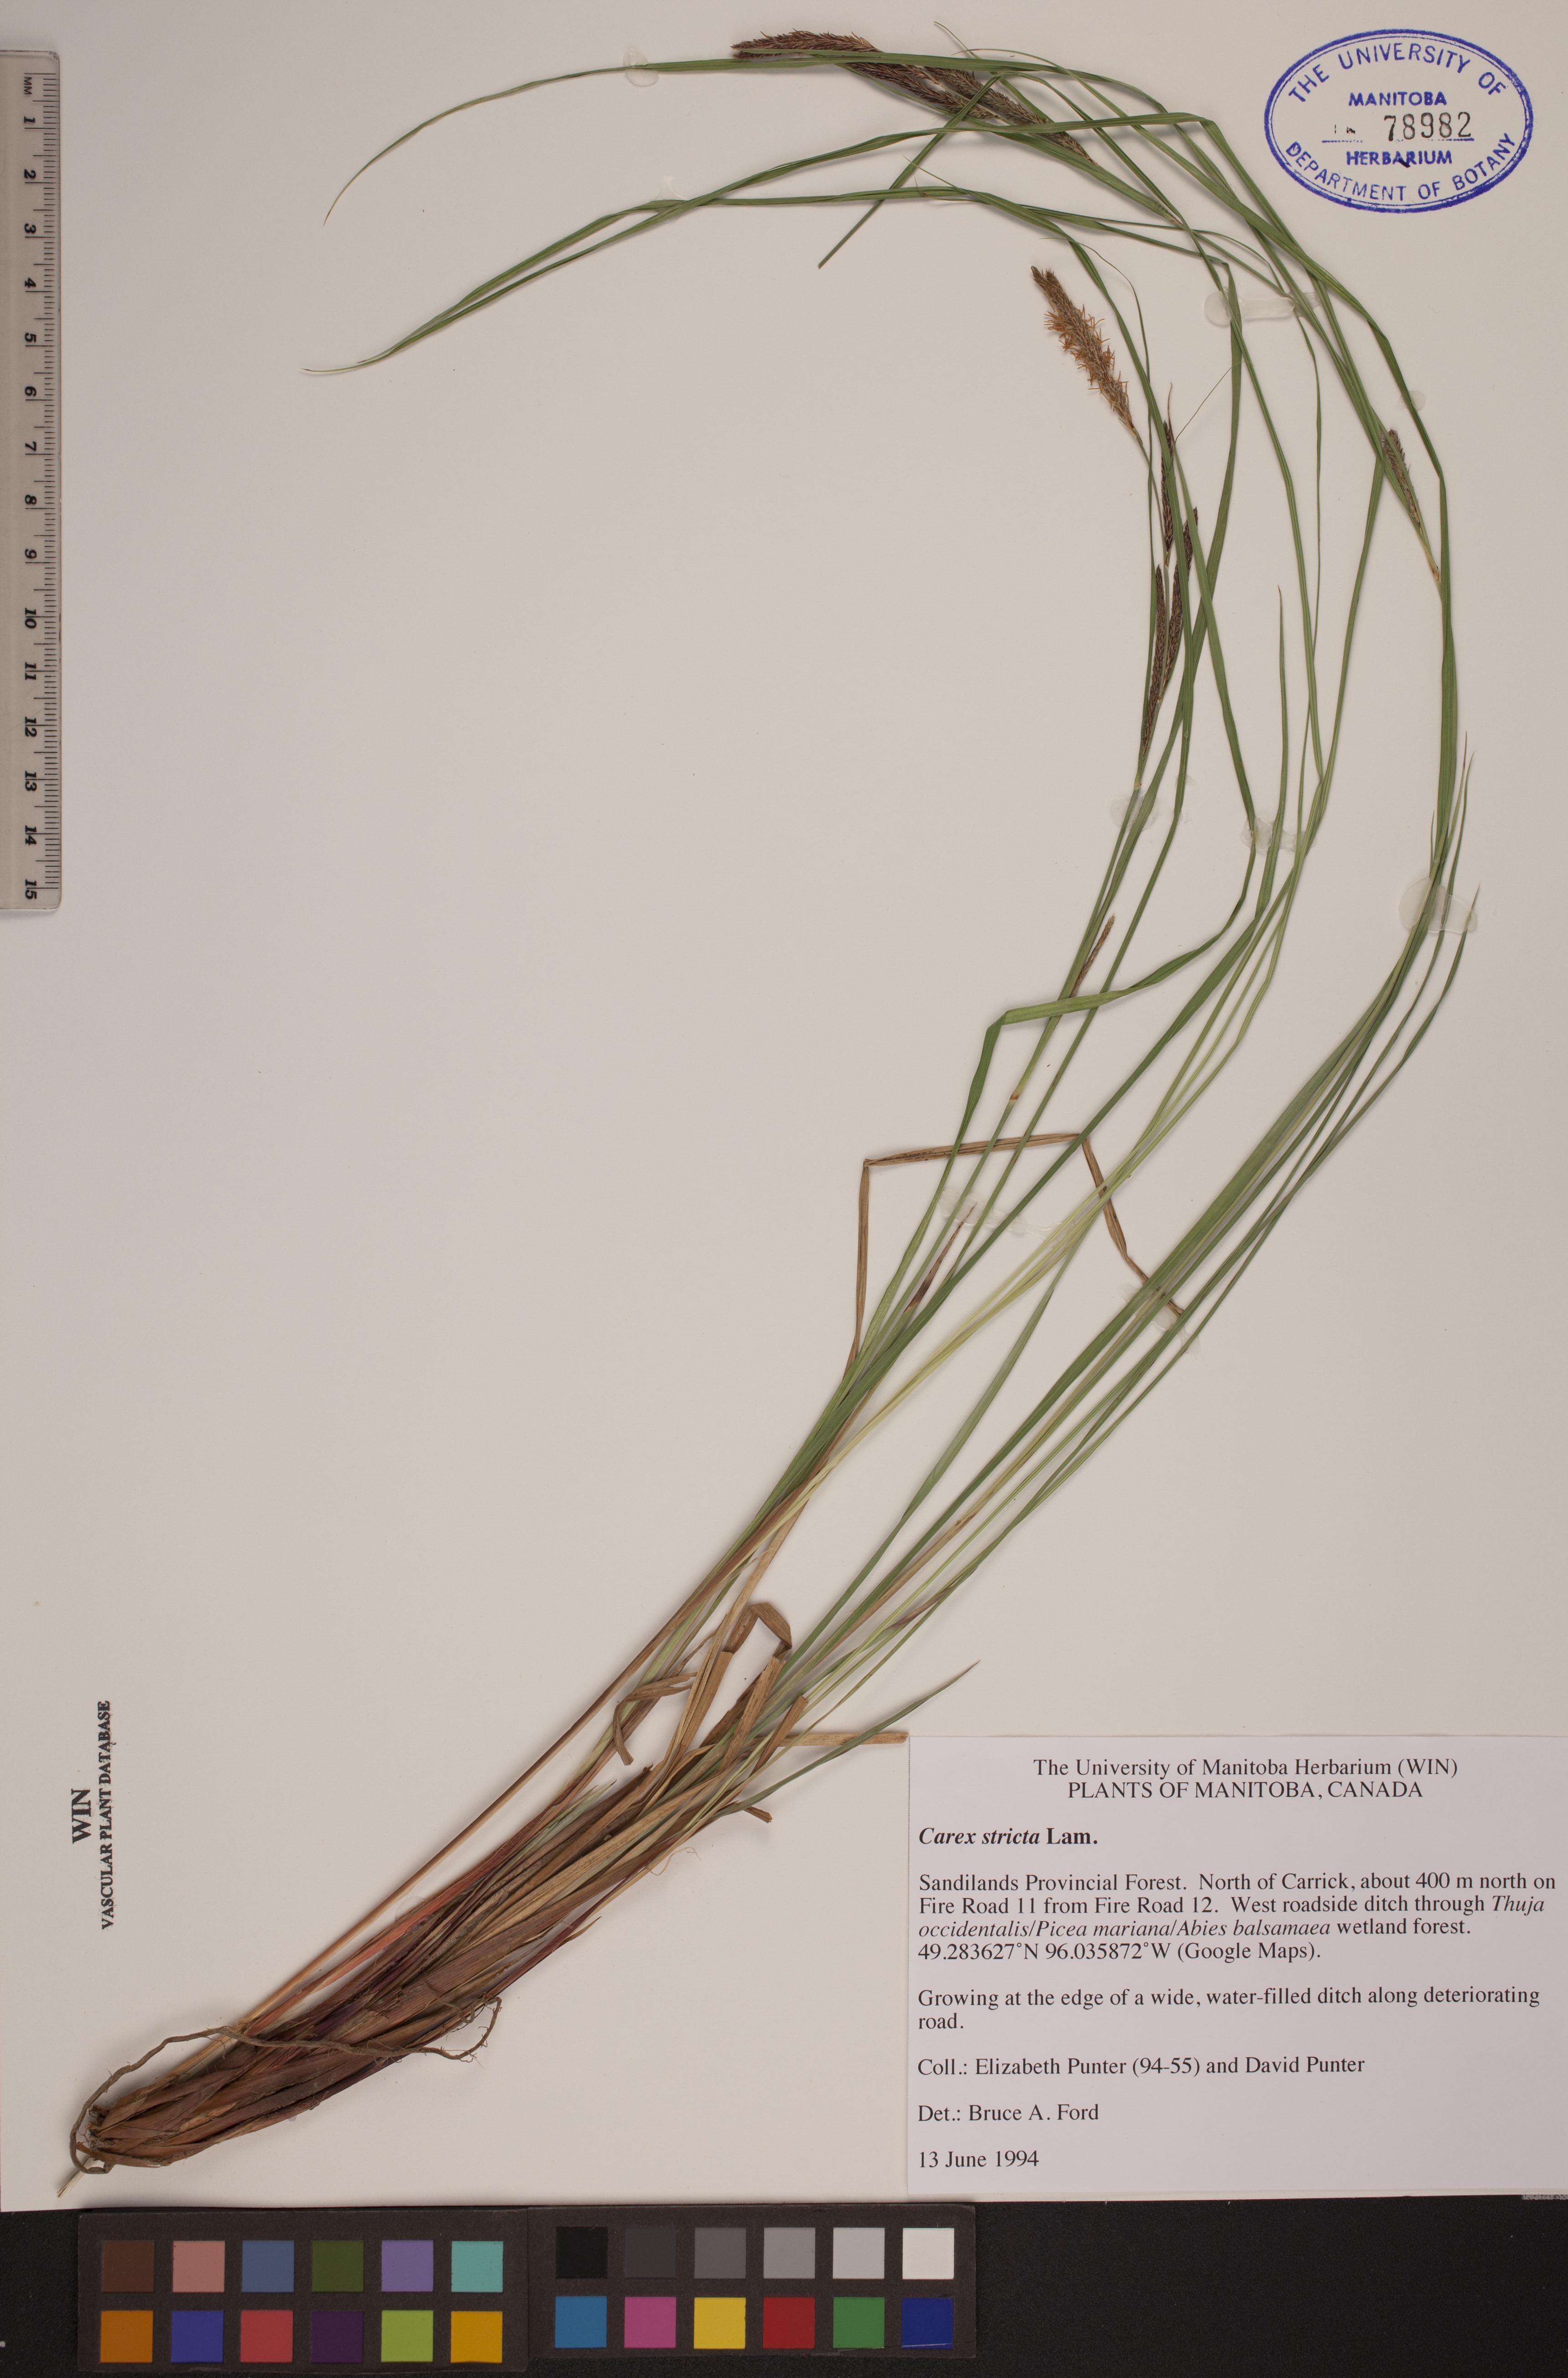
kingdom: Plantae
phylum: Tracheophyta
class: Liliopsida
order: Poales
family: Cyperaceae
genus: Carex
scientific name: Carex stricta
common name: Hummock sedge
